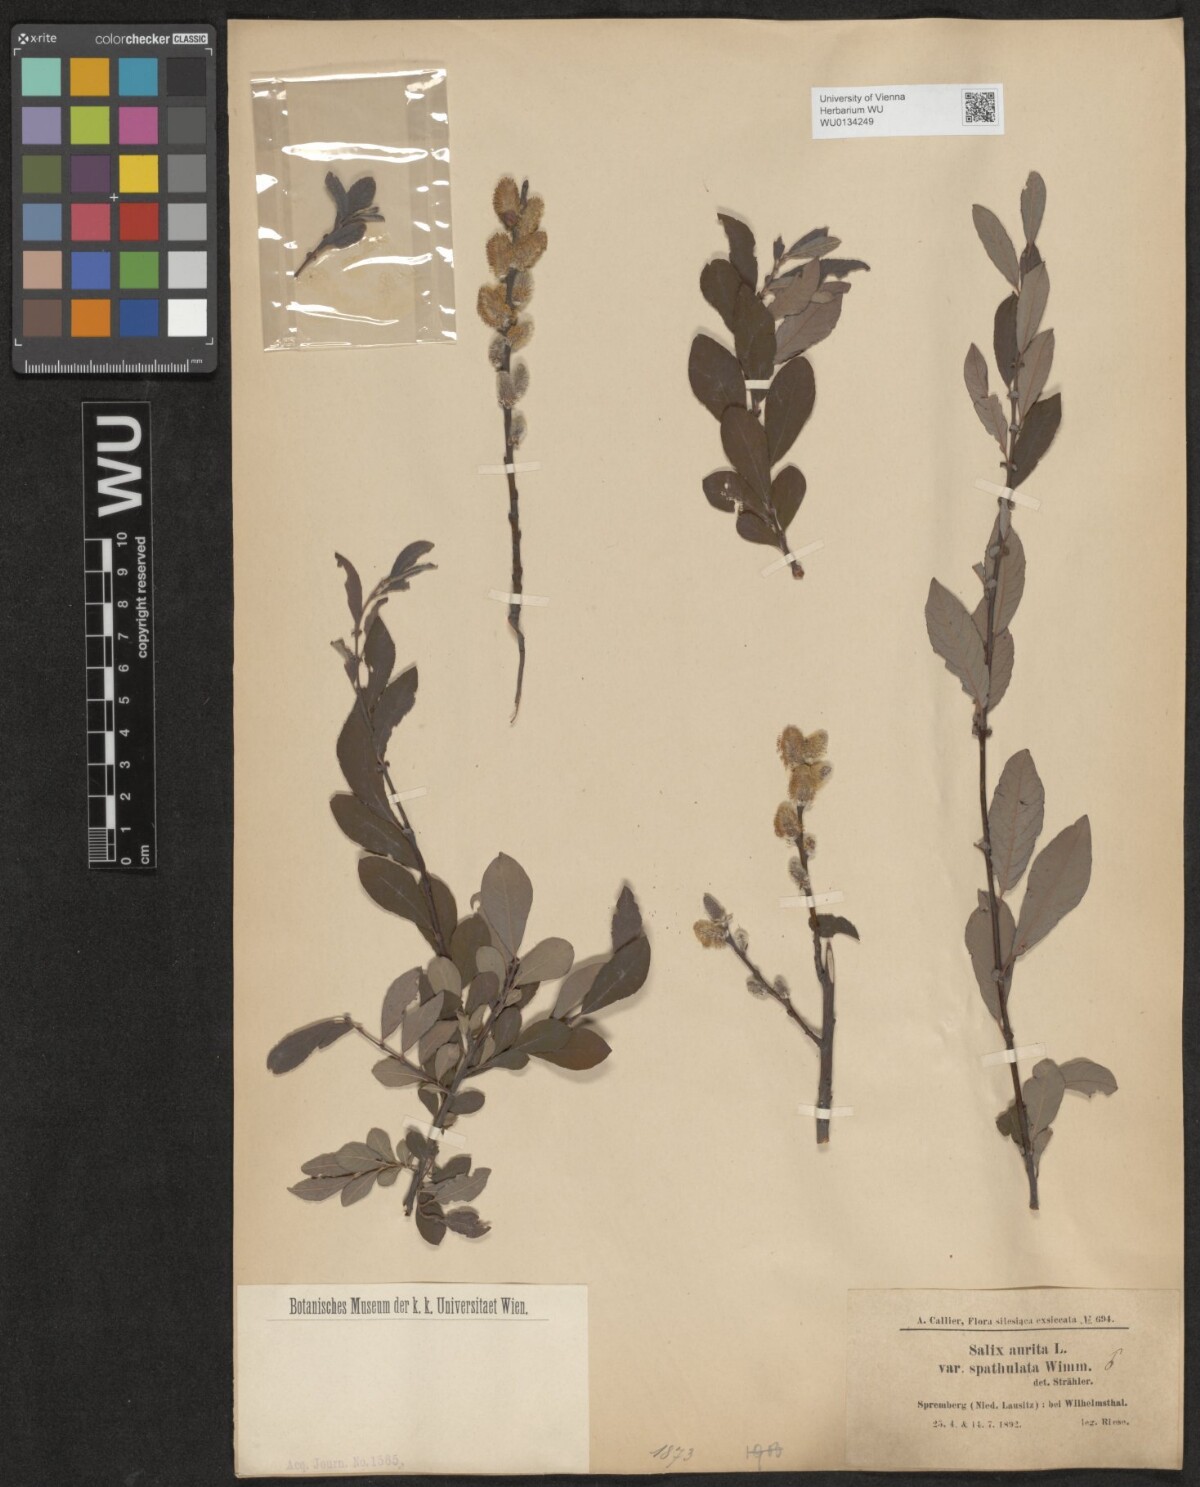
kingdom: Plantae
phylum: Tracheophyta
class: Magnoliopsida
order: Malpighiales
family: Salicaceae
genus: Salix
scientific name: Salix aurita
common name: Eared willow
